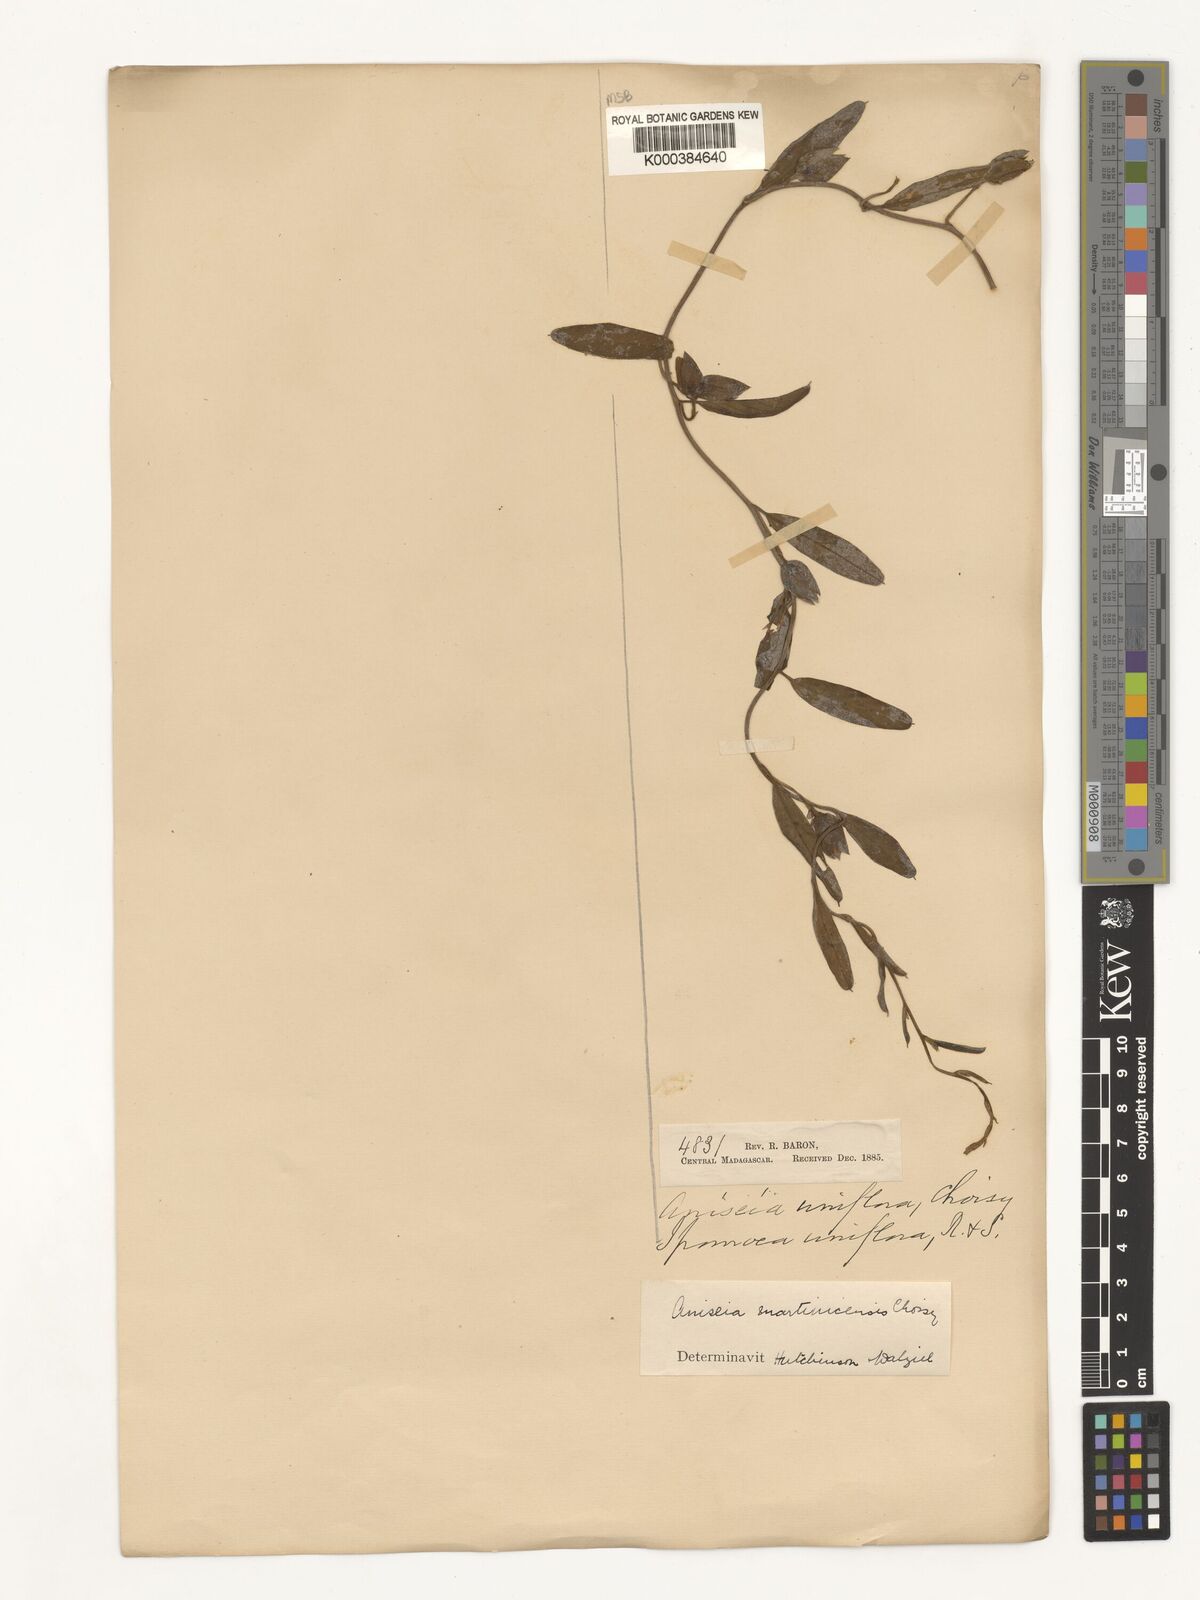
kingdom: Plantae
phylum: Tracheophyta
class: Magnoliopsida
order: Solanales
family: Convolvulaceae
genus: Aniseia
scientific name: Aniseia martinicensis
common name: Kulayadambu
